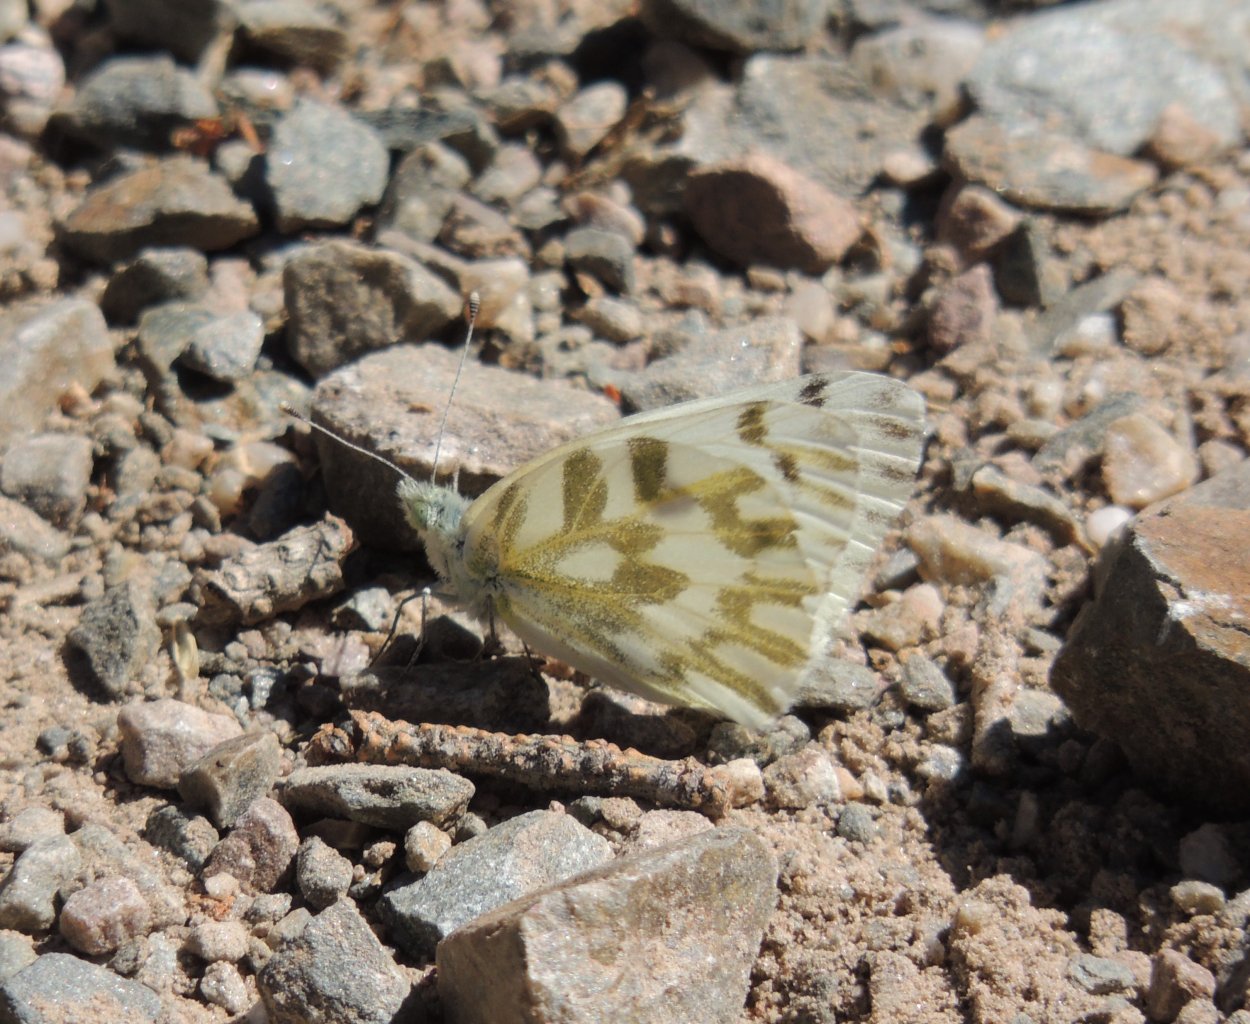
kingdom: Animalia
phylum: Arthropoda
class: Insecta
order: Lepidoptera
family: Pieridae
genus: Pontia
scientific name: Pontia beckerii
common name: Becker's White
